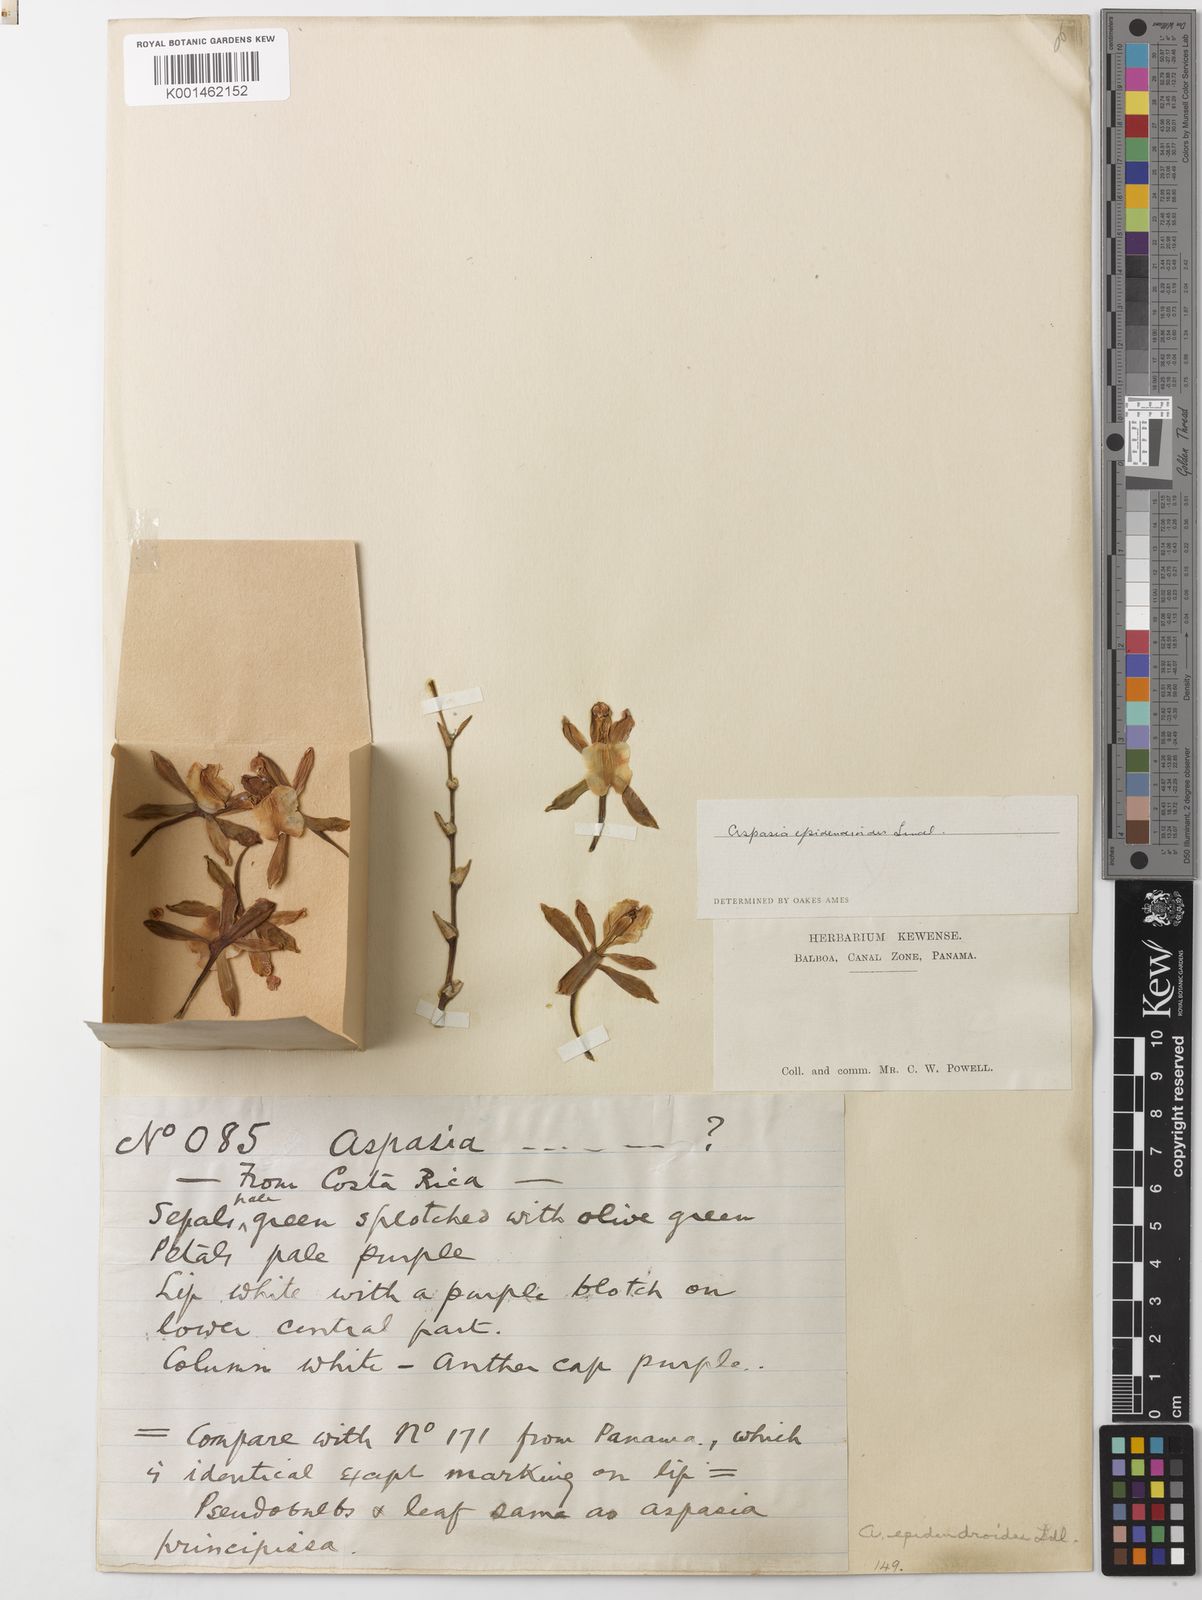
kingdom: Plantae
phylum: Tracheophyta
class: Liliopsida
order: Asparagales
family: Orchidaceae
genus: Aspasia
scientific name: Aspasia epidendroides
